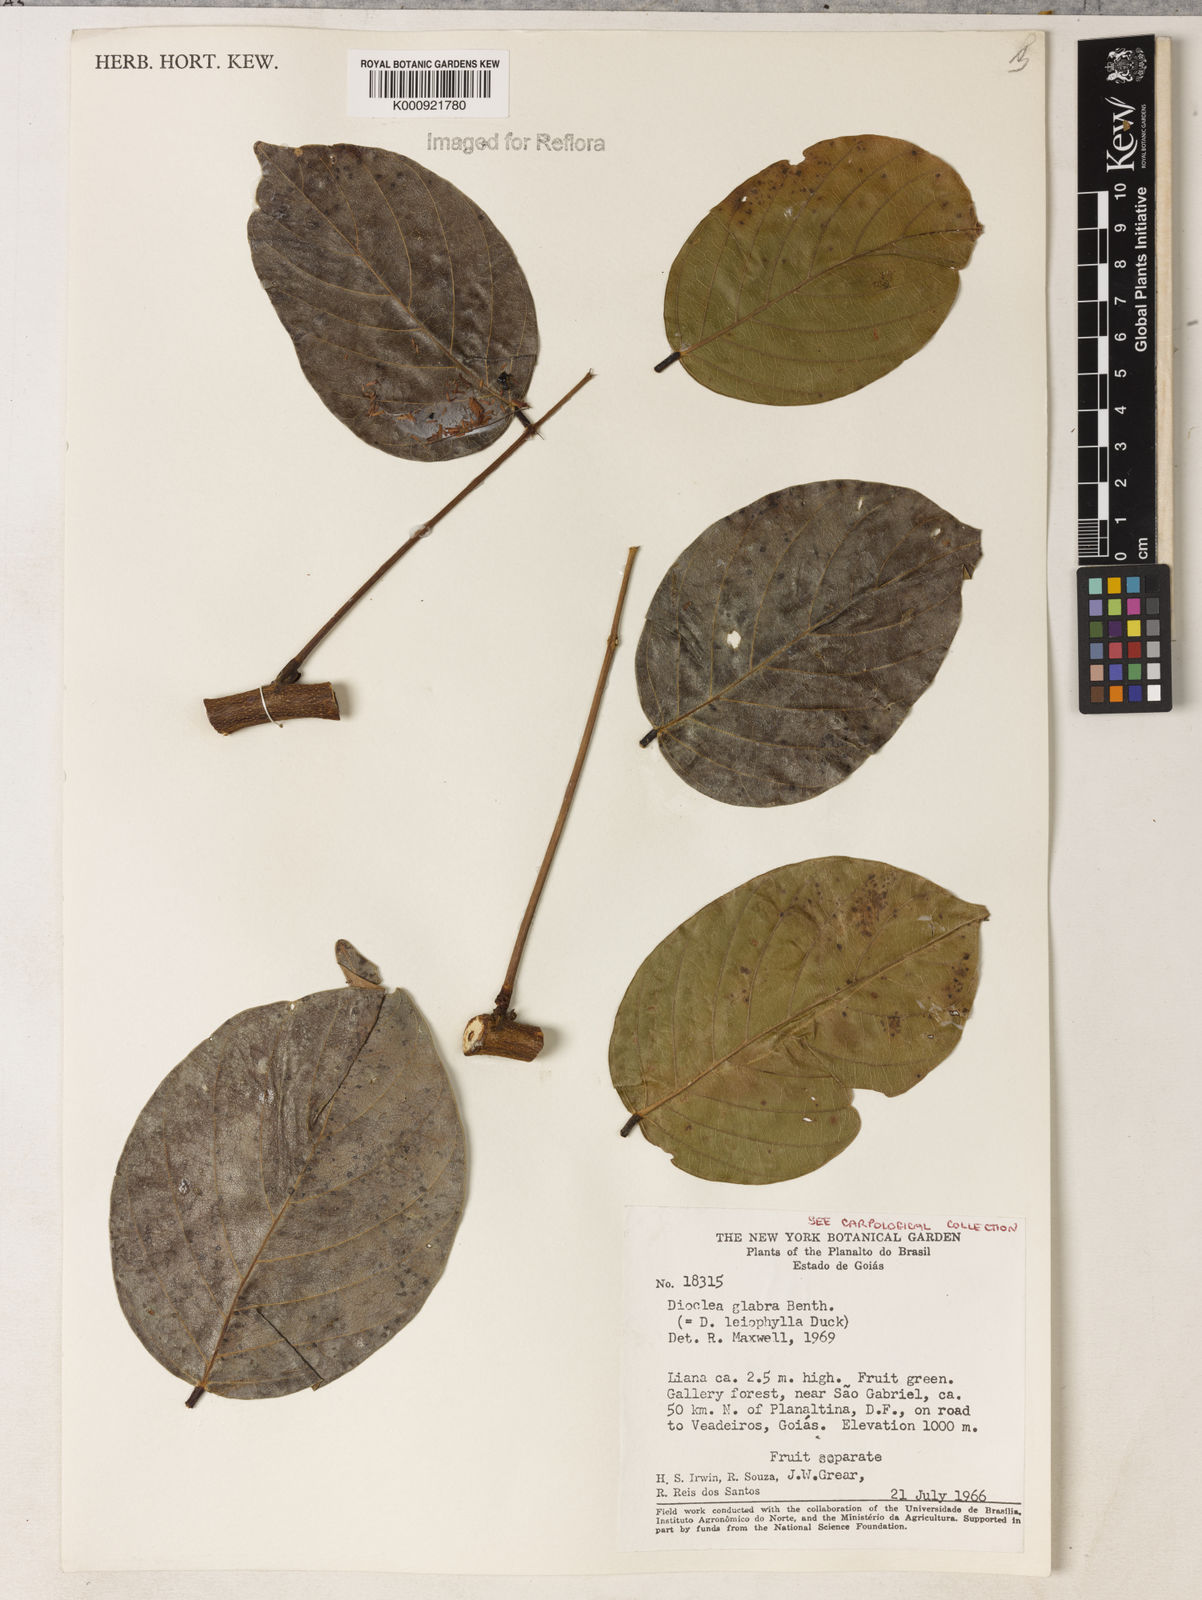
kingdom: Plantae
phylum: Tracheophyta
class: Magnoliopsida
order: Fabales
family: Fabaceae
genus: Macropsychanthus
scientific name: Macropsychanthus glaber
